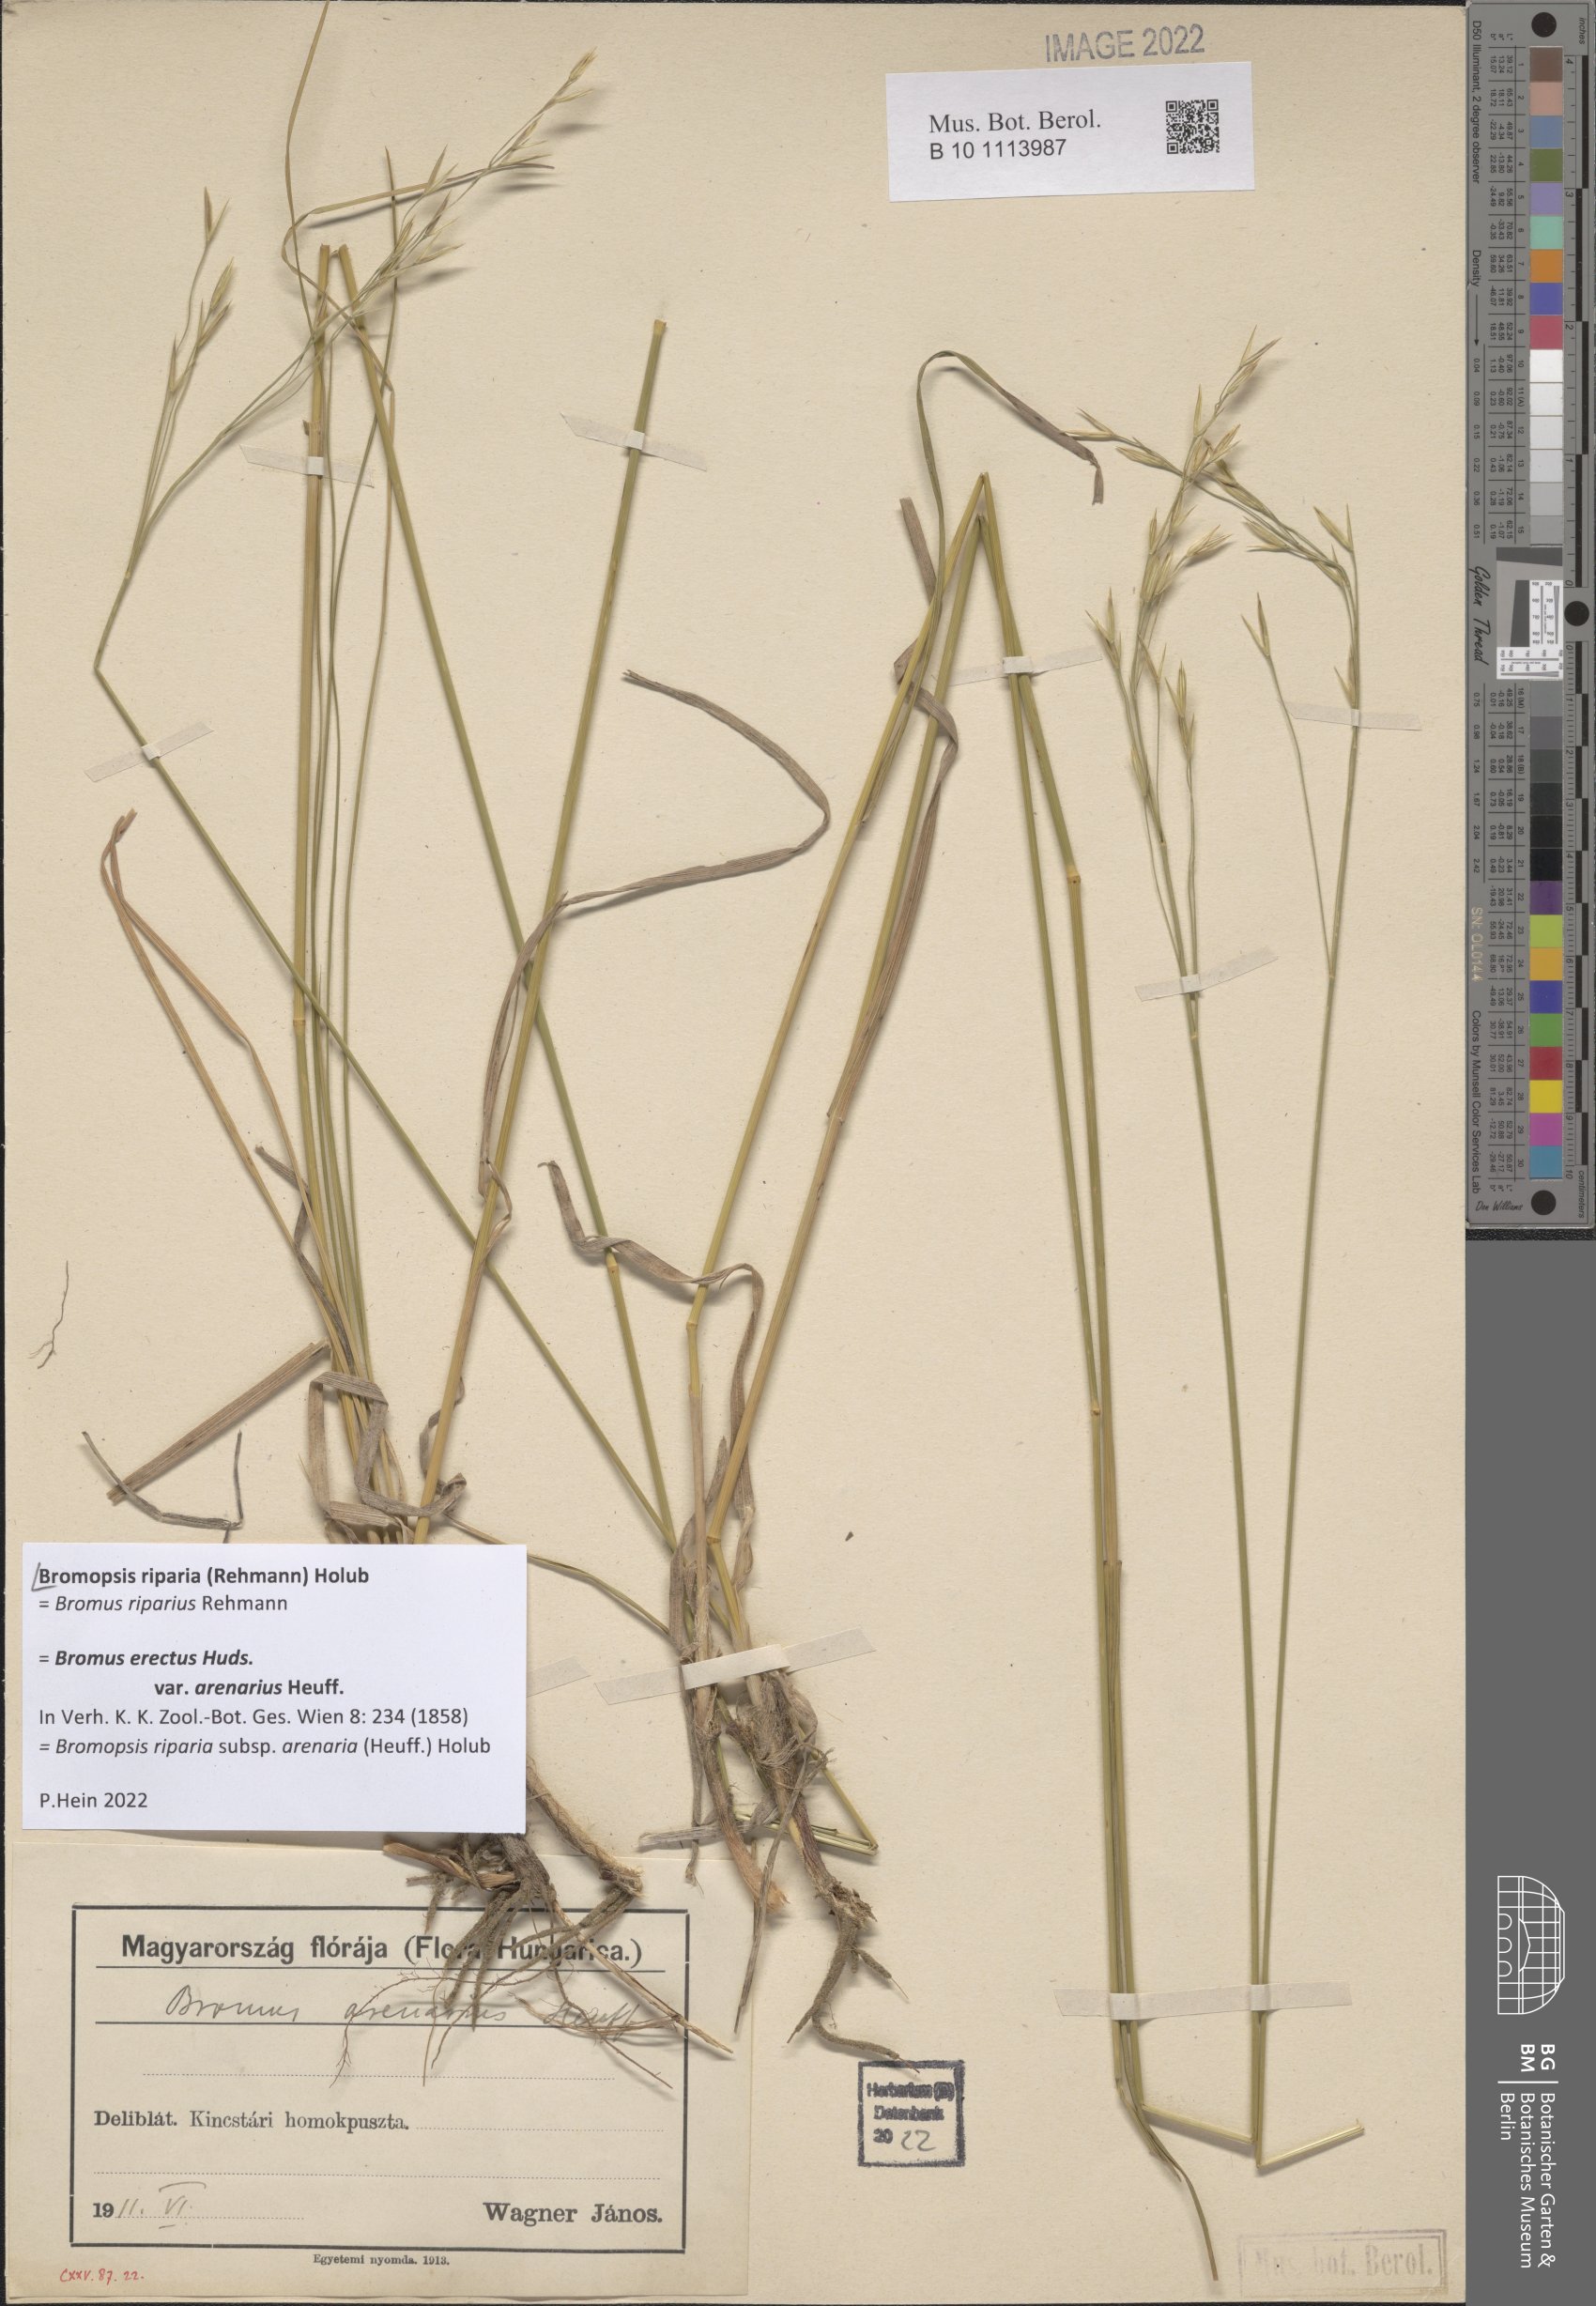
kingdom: Plantae
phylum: Tracheophyta
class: Liliopsida
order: Poales
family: Poaceae
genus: Bromus
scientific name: Bromus riparius
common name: Meadow brome
